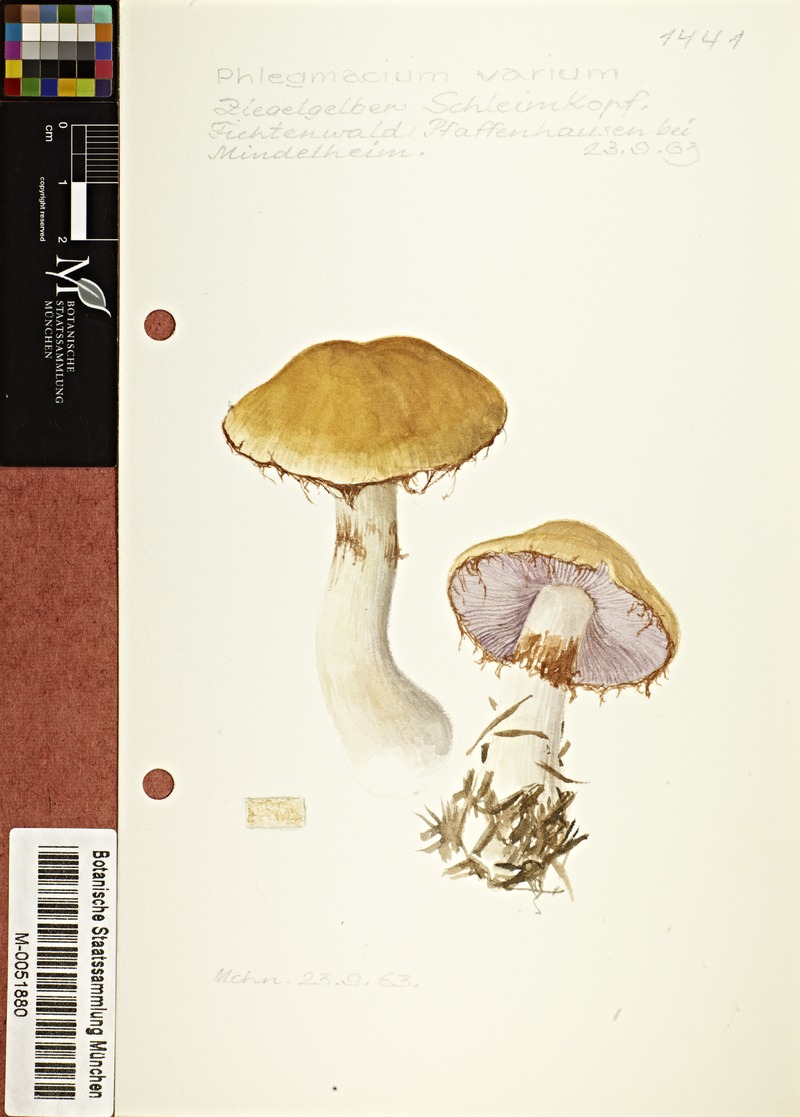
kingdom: Fungi
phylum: Basidiomycota
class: Agaricomycetes
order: Agaricales
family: Cortinariaceae
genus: Cortinarius
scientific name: Cortinarius varius
